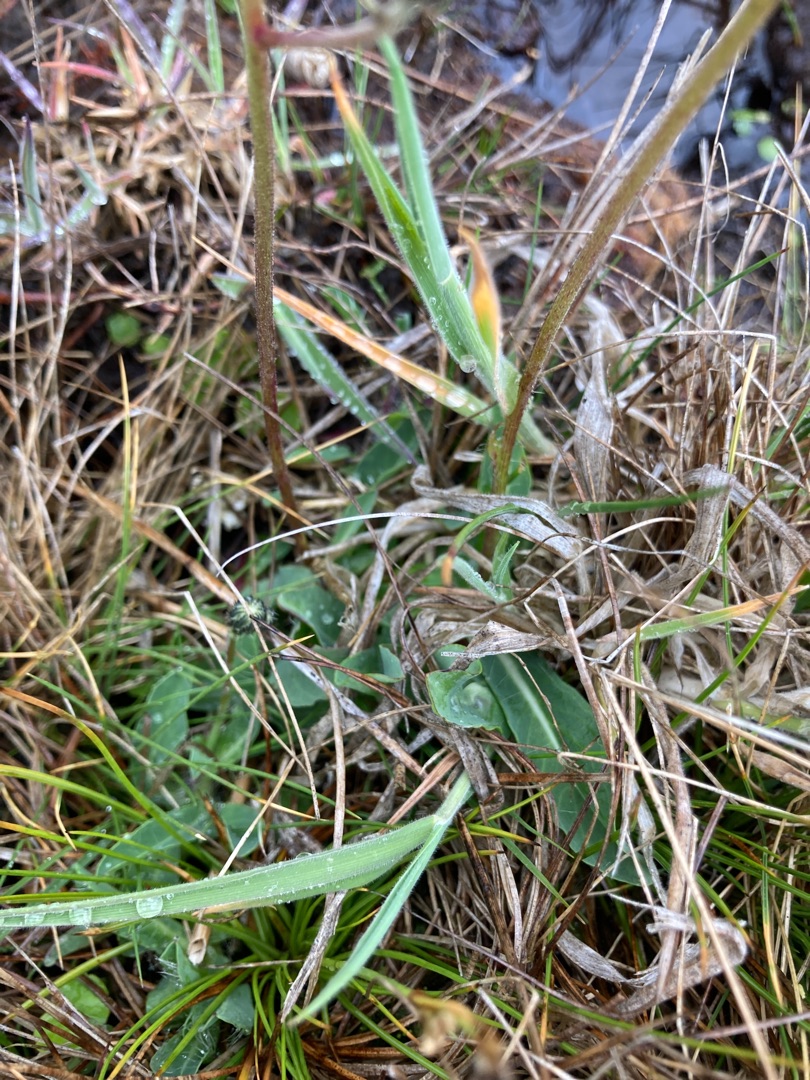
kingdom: Plantae
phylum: Tracheophyta
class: Magnoliopsida
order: Asterales
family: Asteraceae
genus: Pilosella
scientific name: Pilosella lactucella
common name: Lancetbladet høgeurt
